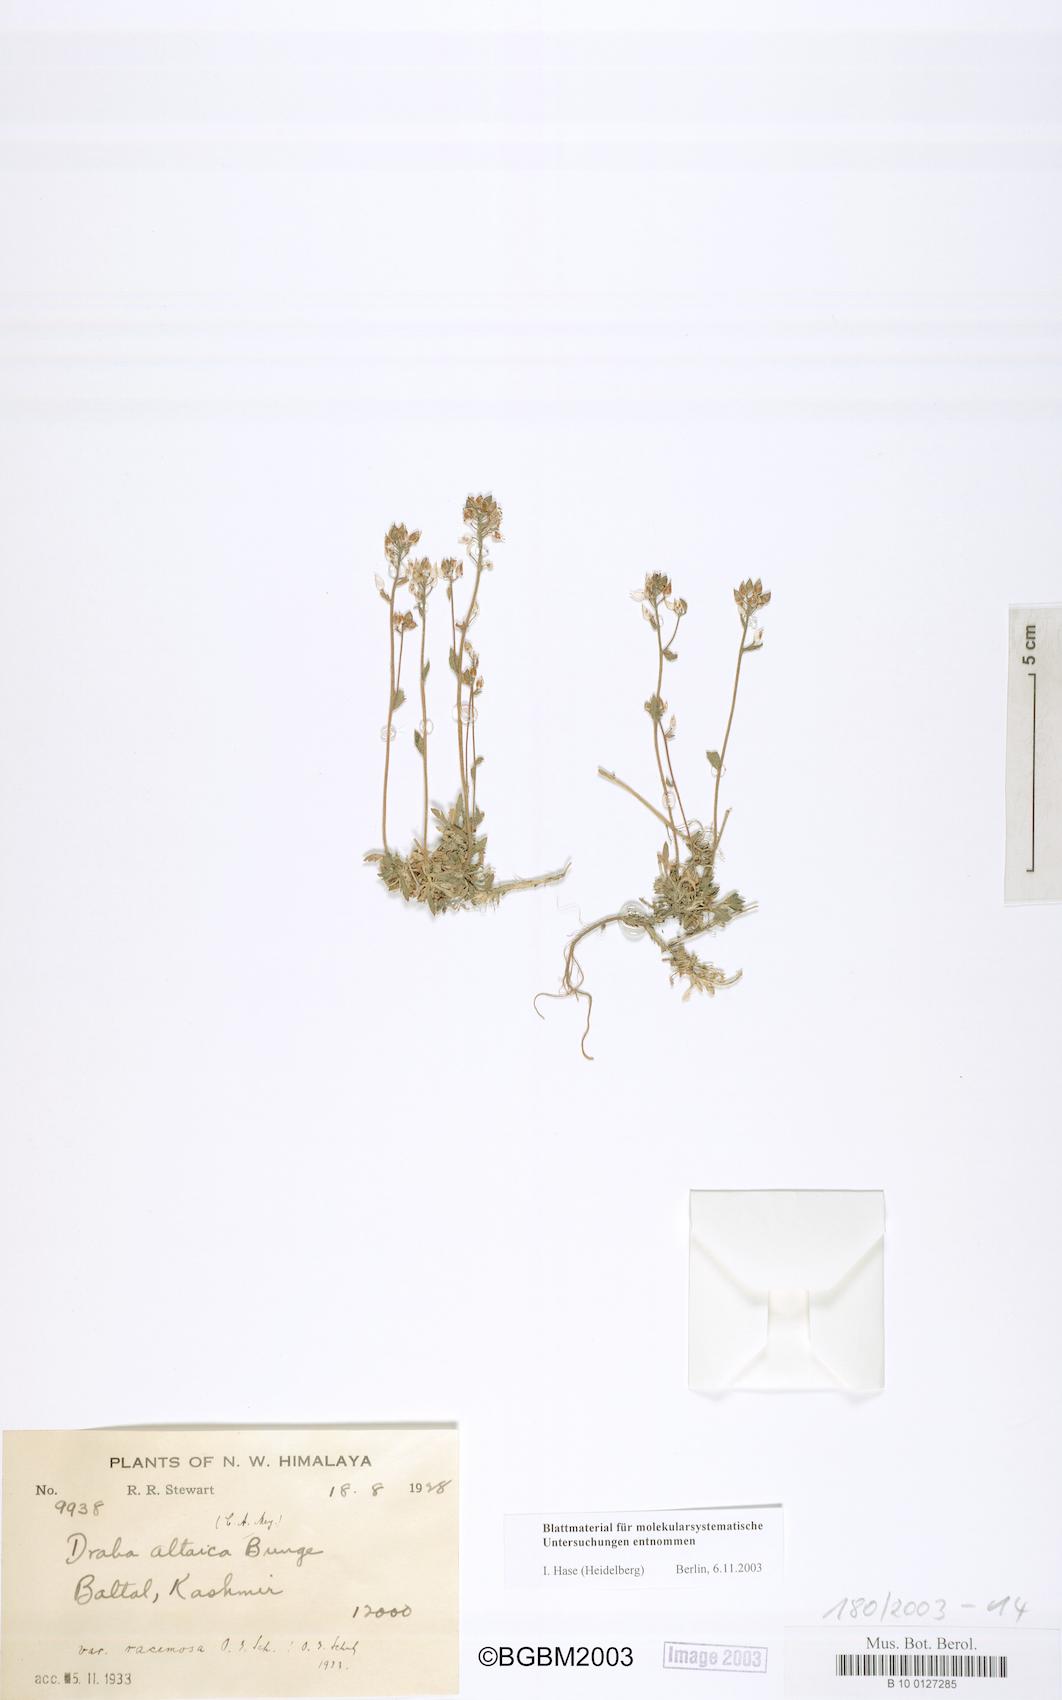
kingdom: Plantae
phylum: Tracheophyta
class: Magnoliopsida
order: Brassicales
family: Brassicaceae
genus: Draba
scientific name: Draba altaica
